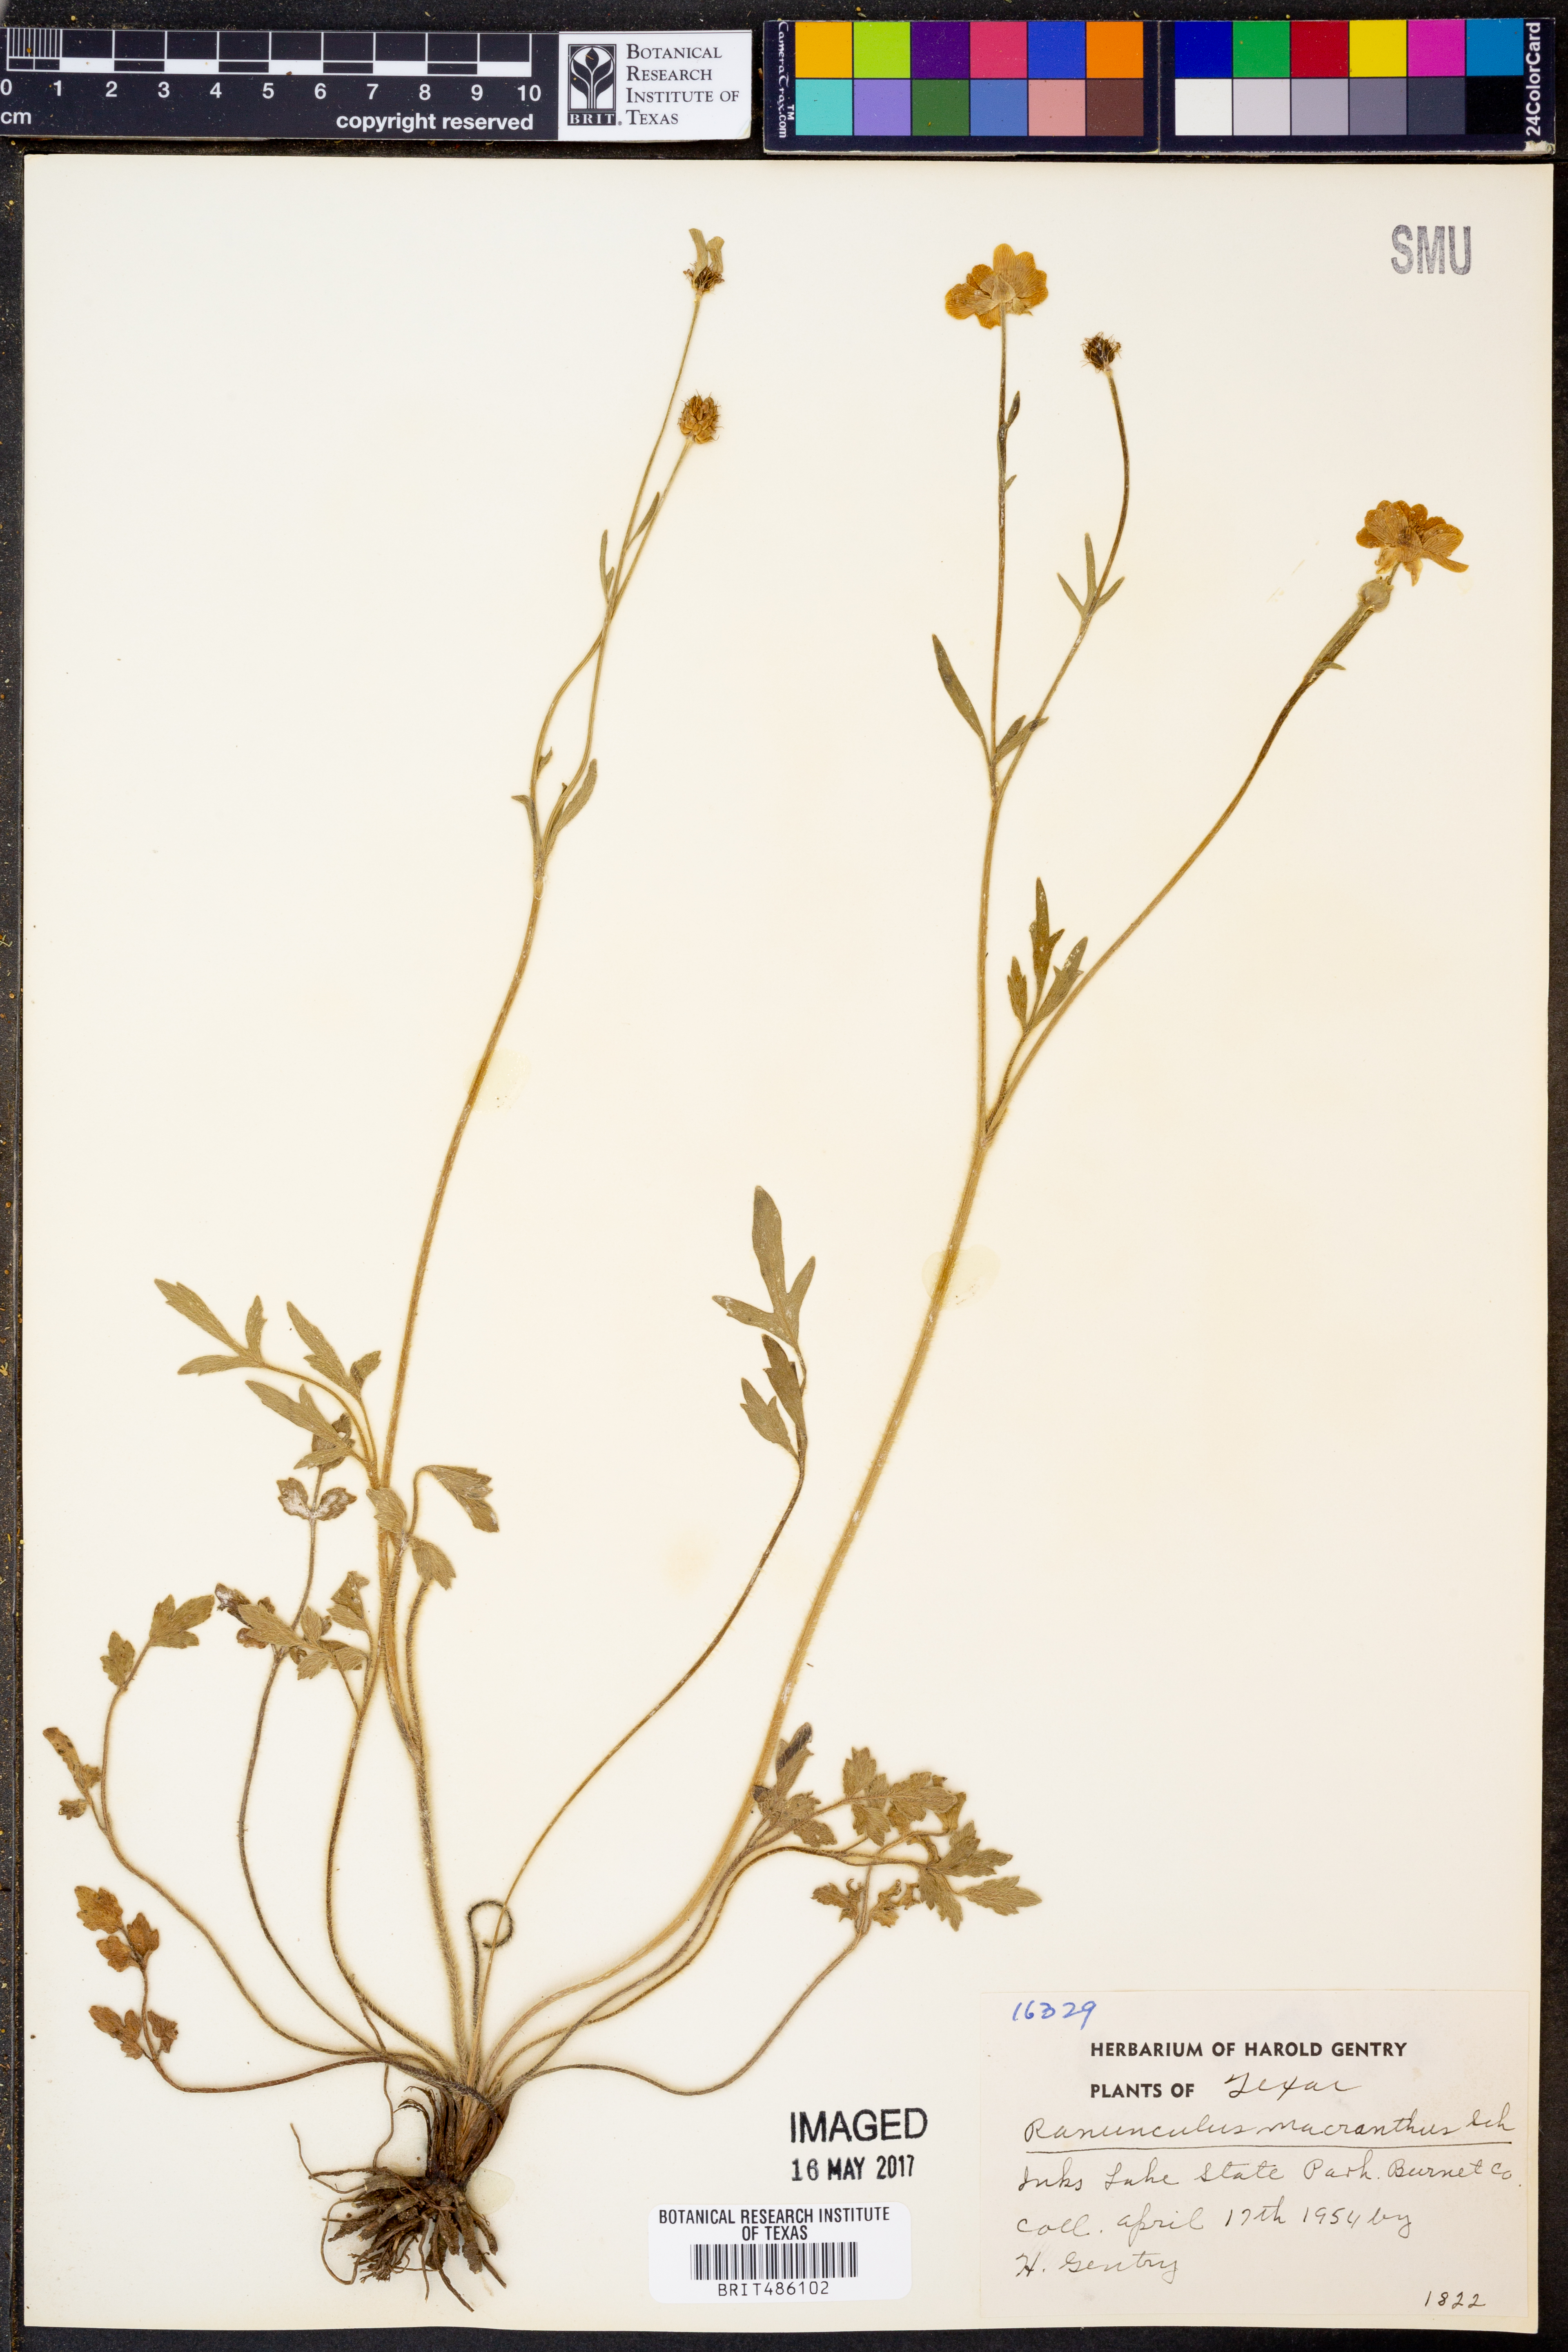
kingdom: Plantae
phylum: Tracheophyta
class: Magnoliopsida
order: Ranunculales
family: Ranunculaceae
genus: Ranunculus
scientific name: Ranunculus macranthus
